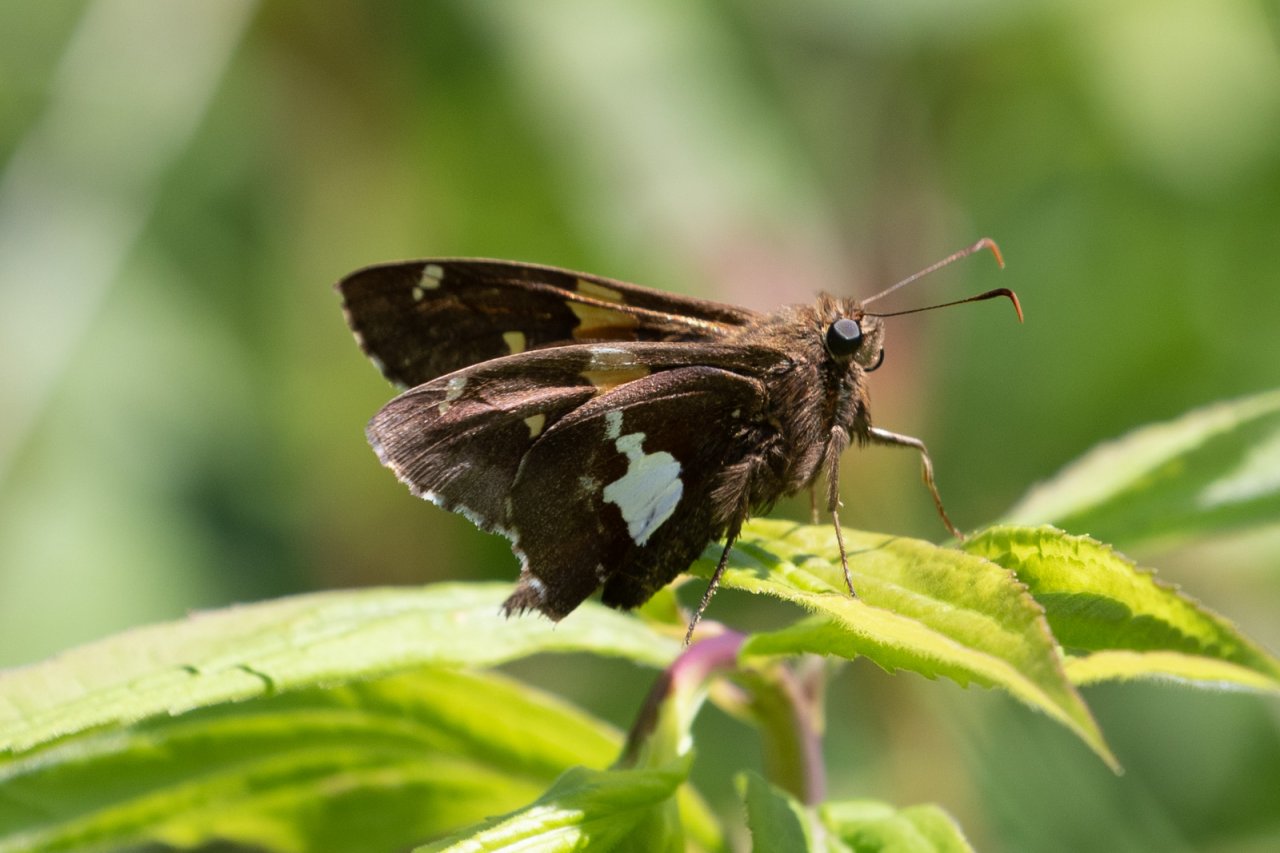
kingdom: Animalia
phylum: Arthropoda
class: Insecta
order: Lepidoptera
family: Hesperiidae
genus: Epargyreus
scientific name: Epargyreus clarus
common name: Silver-spotted Skipper
